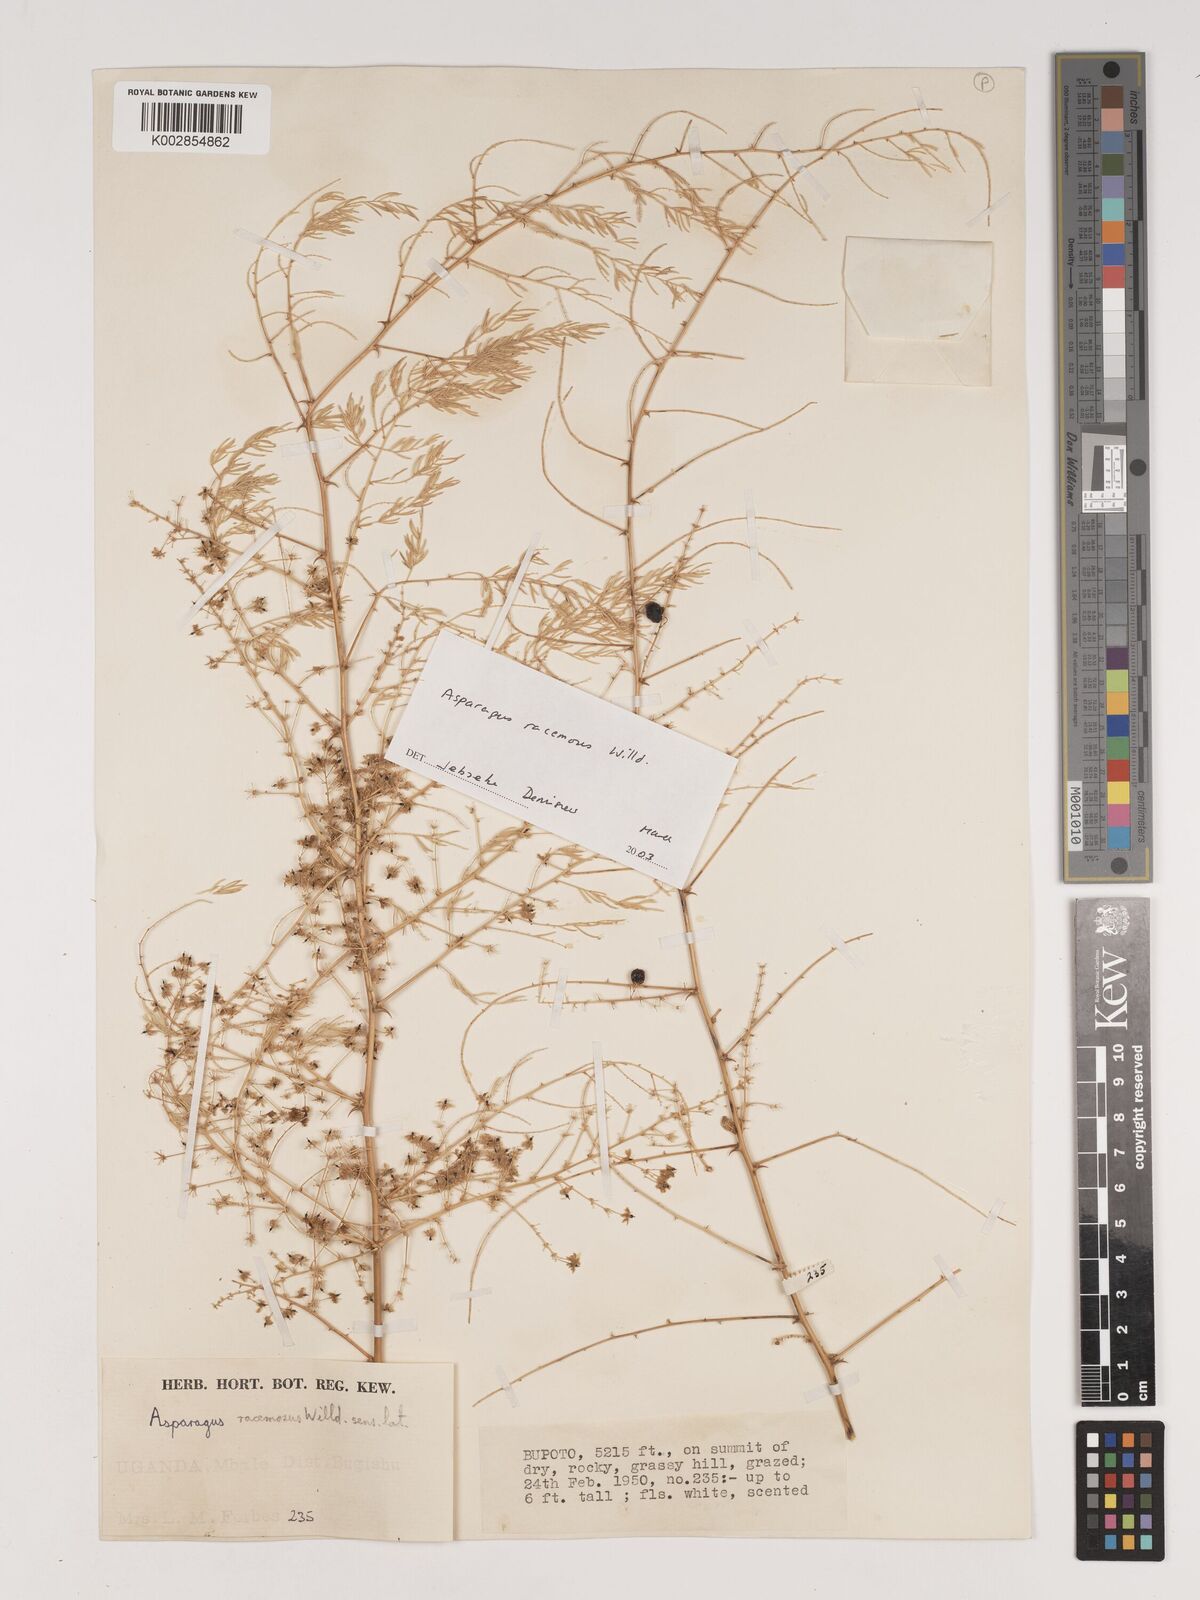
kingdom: Plantae
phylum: Tracheophyta
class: Liliopsida
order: Asparagales
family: Asparagaceae
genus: Asparagus
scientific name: Asparagus racemosus
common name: Asparagus-fern
